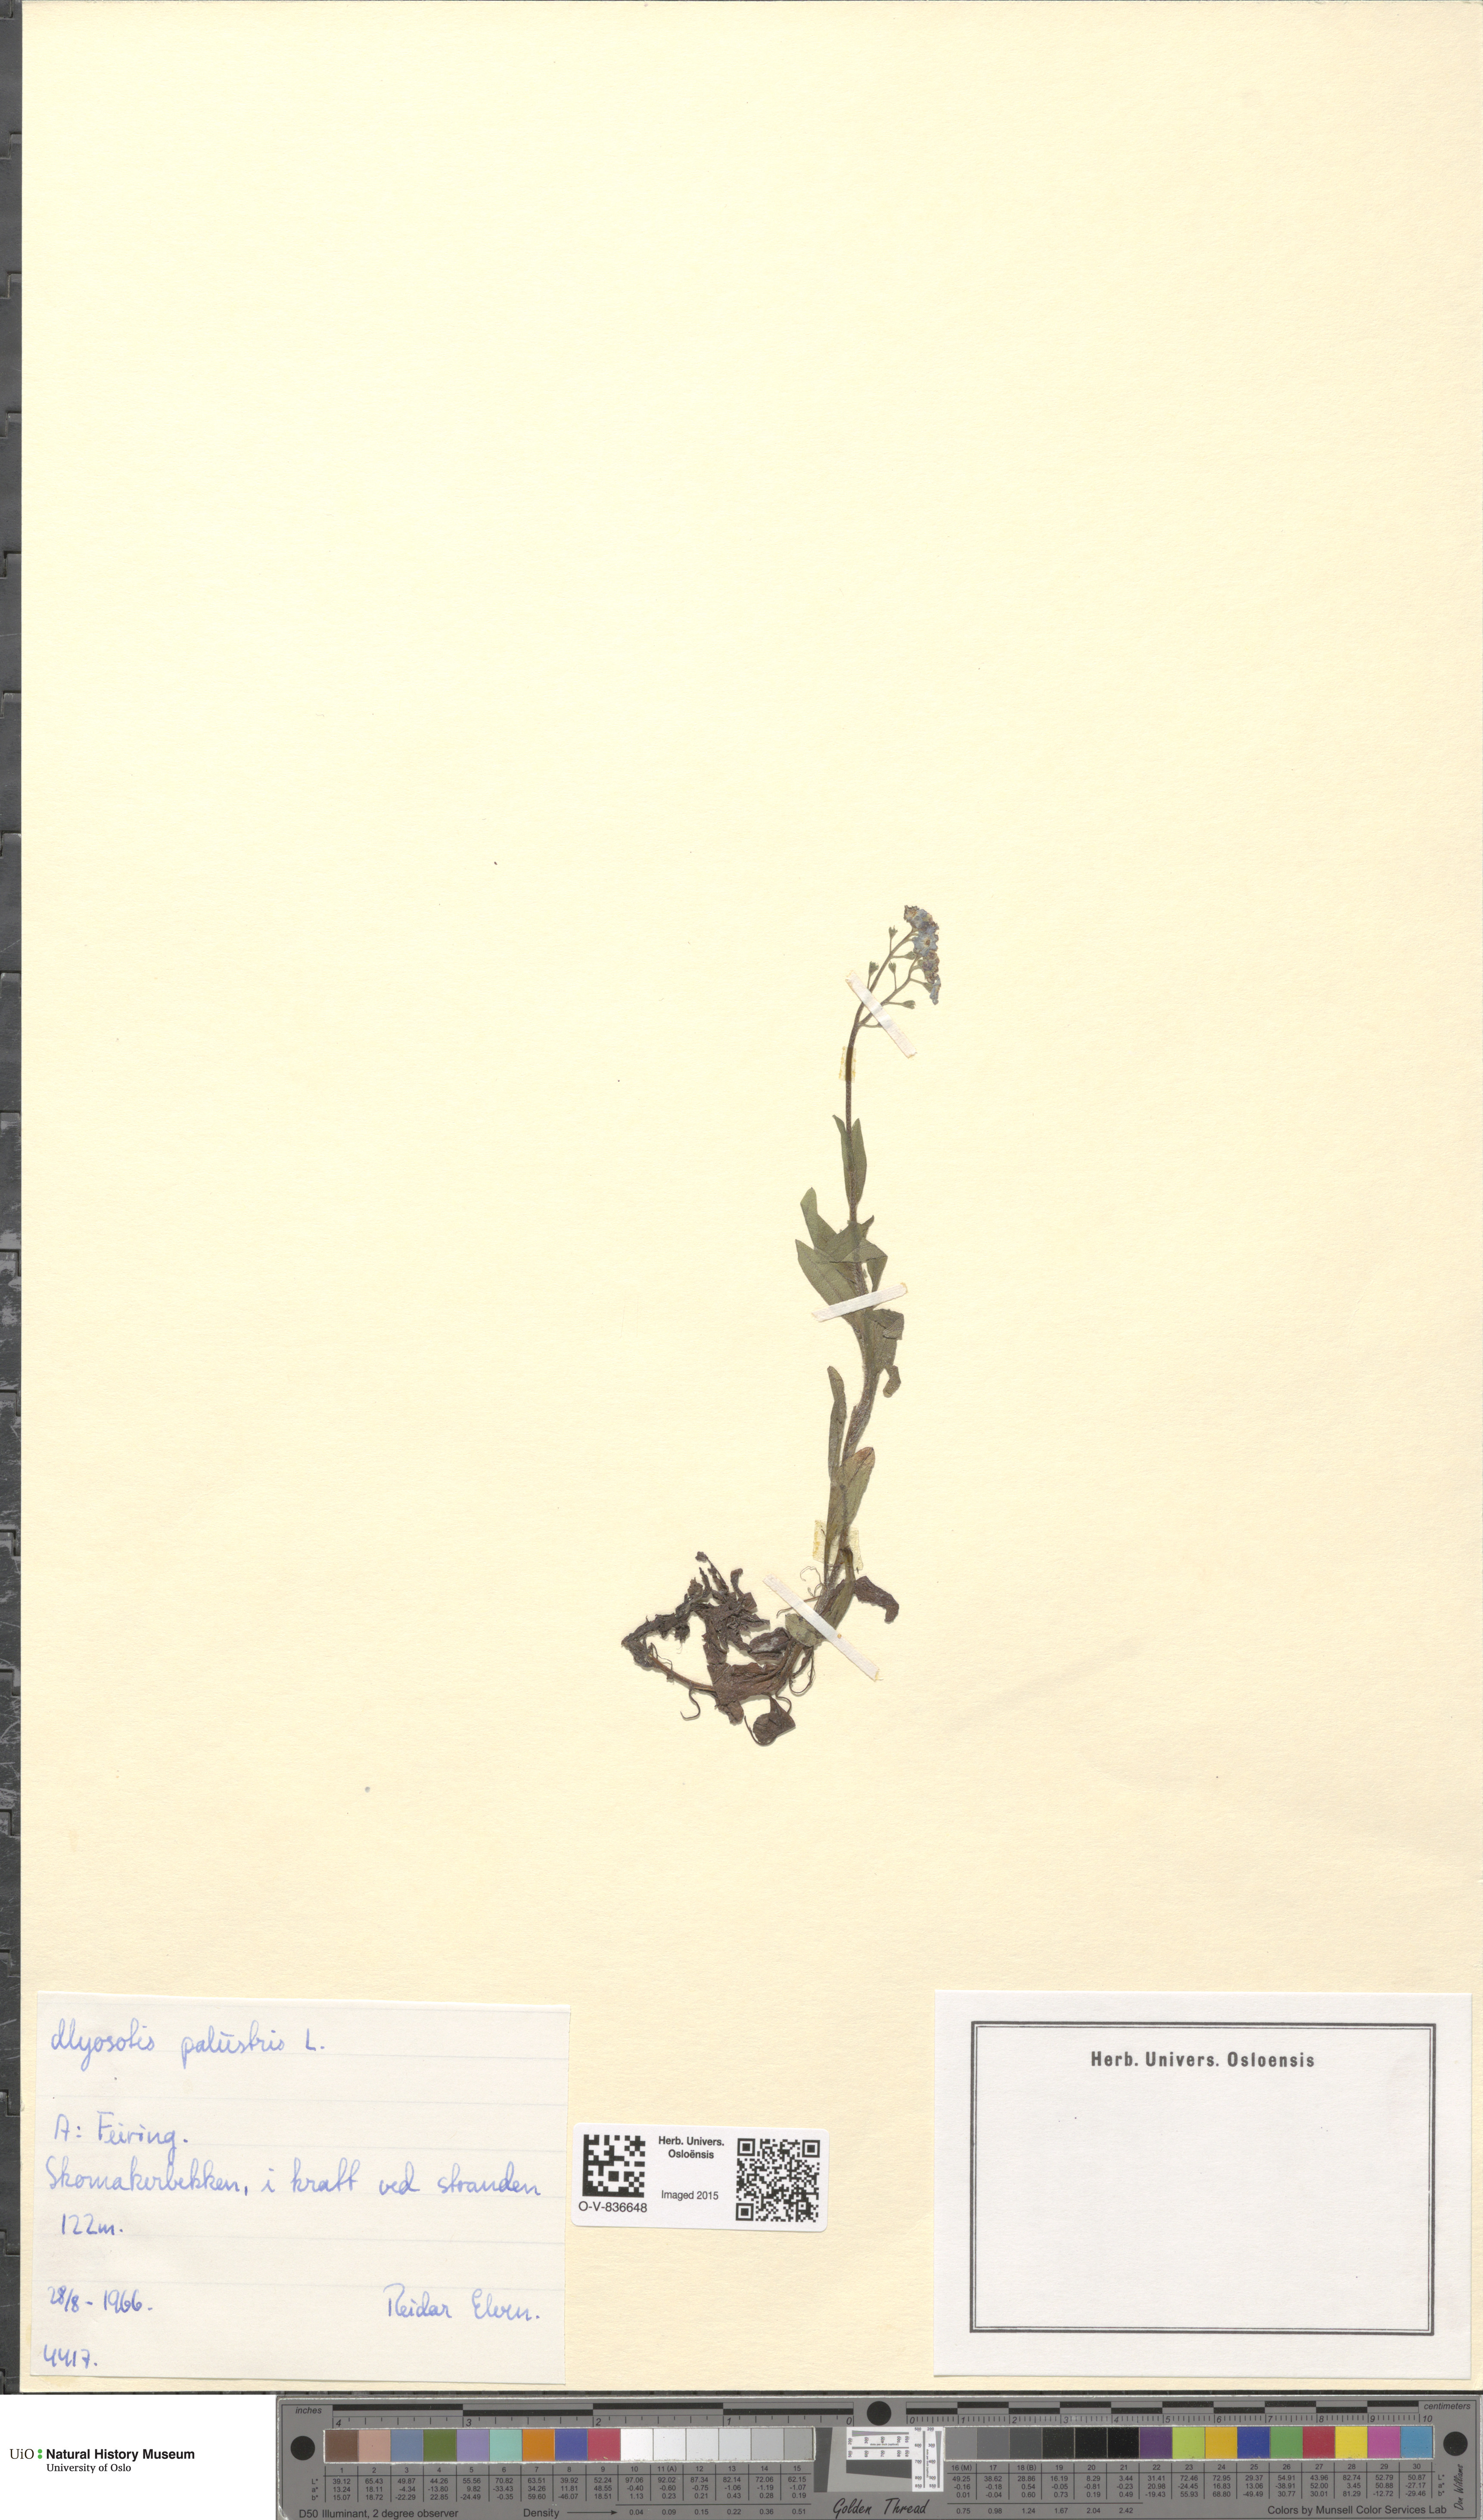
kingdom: Plantae
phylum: Tracheophyta
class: Magnoliopsida
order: Boraginales
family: Boraginaceae
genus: Myosotis
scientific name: Myosotis scorpioides
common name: Water forget-me-not
